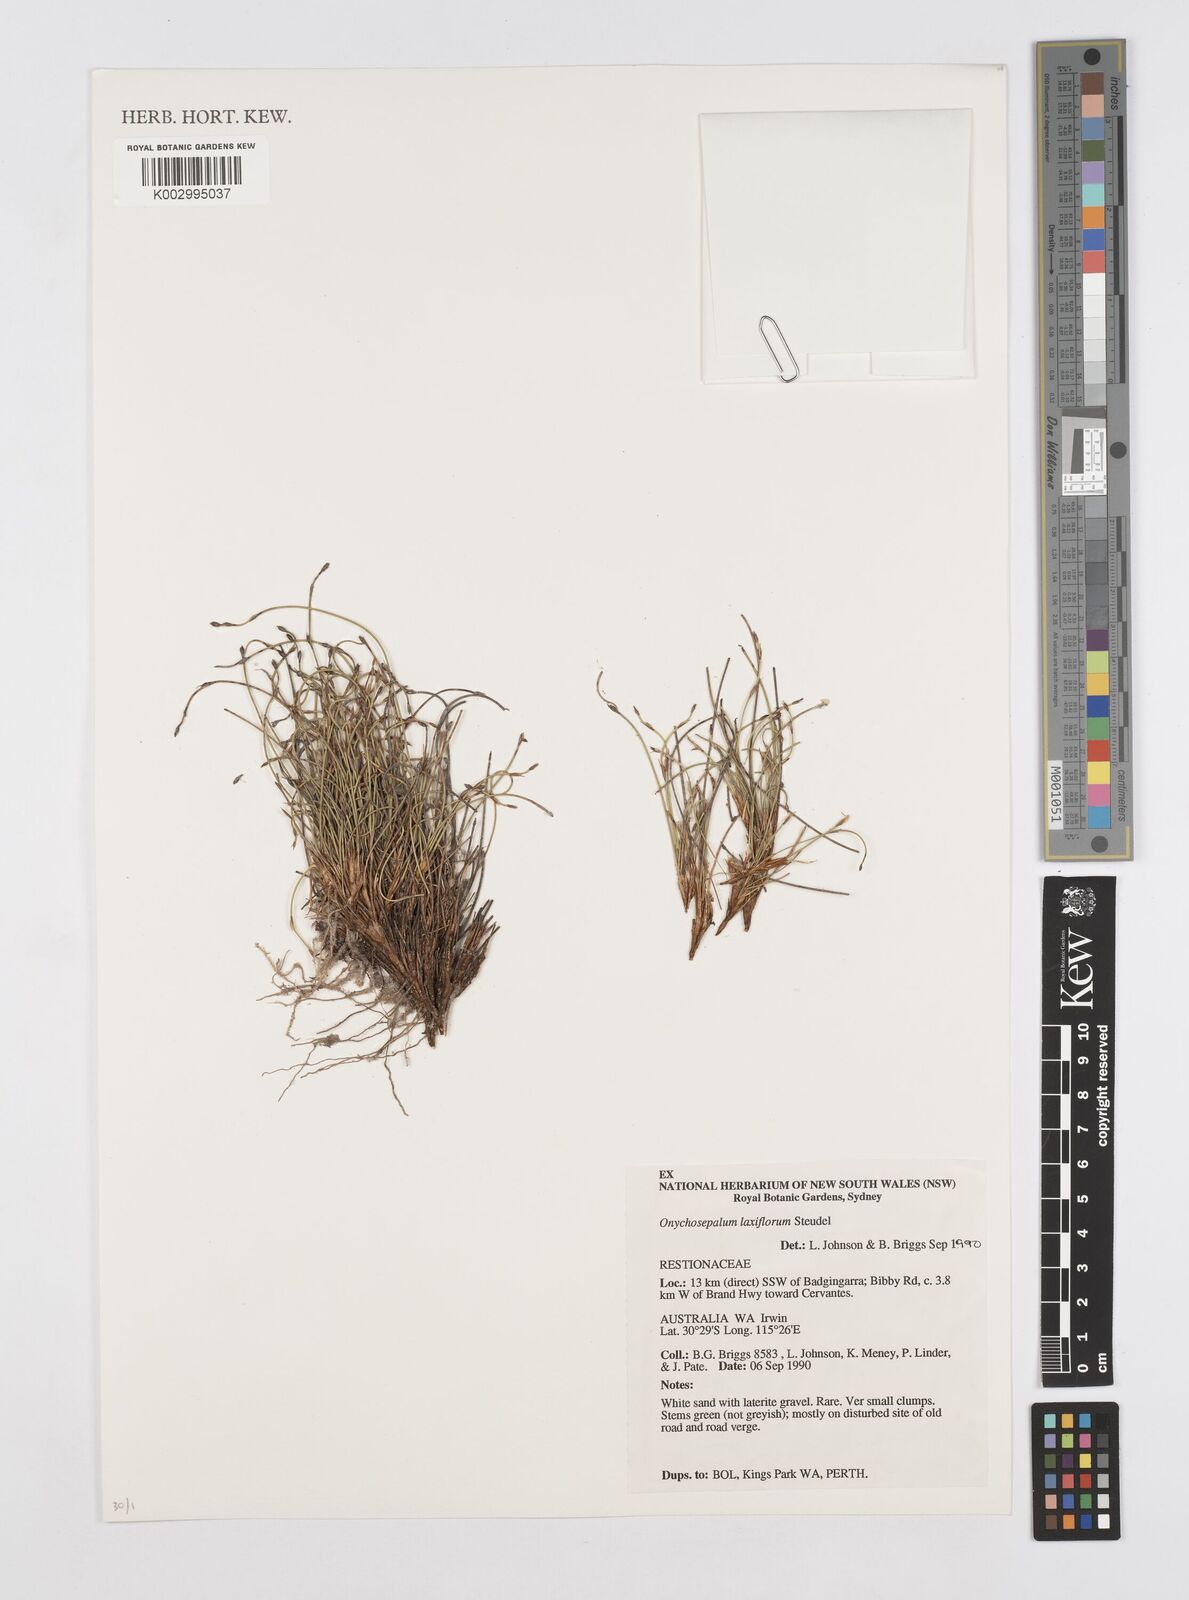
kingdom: Plantae
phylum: Tracheophyta
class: Liliopsida
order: Poales
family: Restionaceae
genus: Desmocladus
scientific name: Desmocladus laxiflorus
